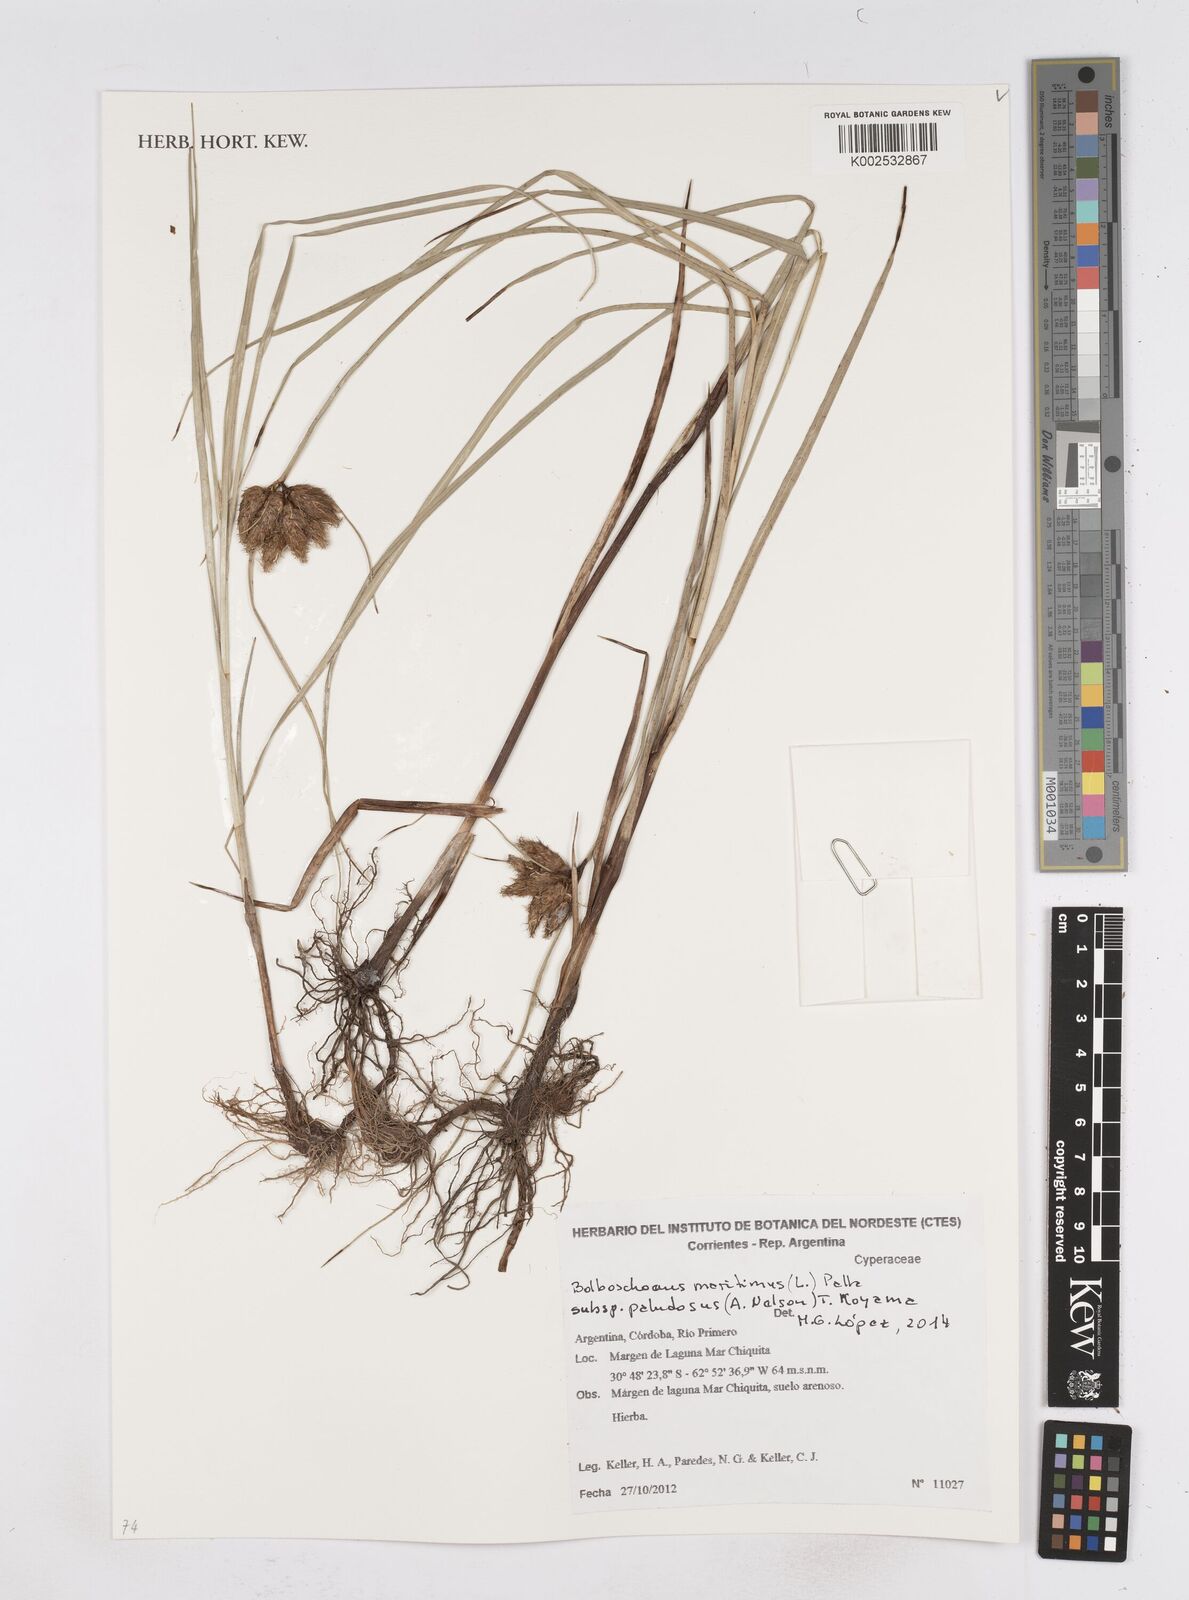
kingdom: Plantae
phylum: Tracheophyta
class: Liliopsida
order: Poales
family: Cyperaceae
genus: Bolboschoenus
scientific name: Bolboschoenus maritimus
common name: Sea club-rush
